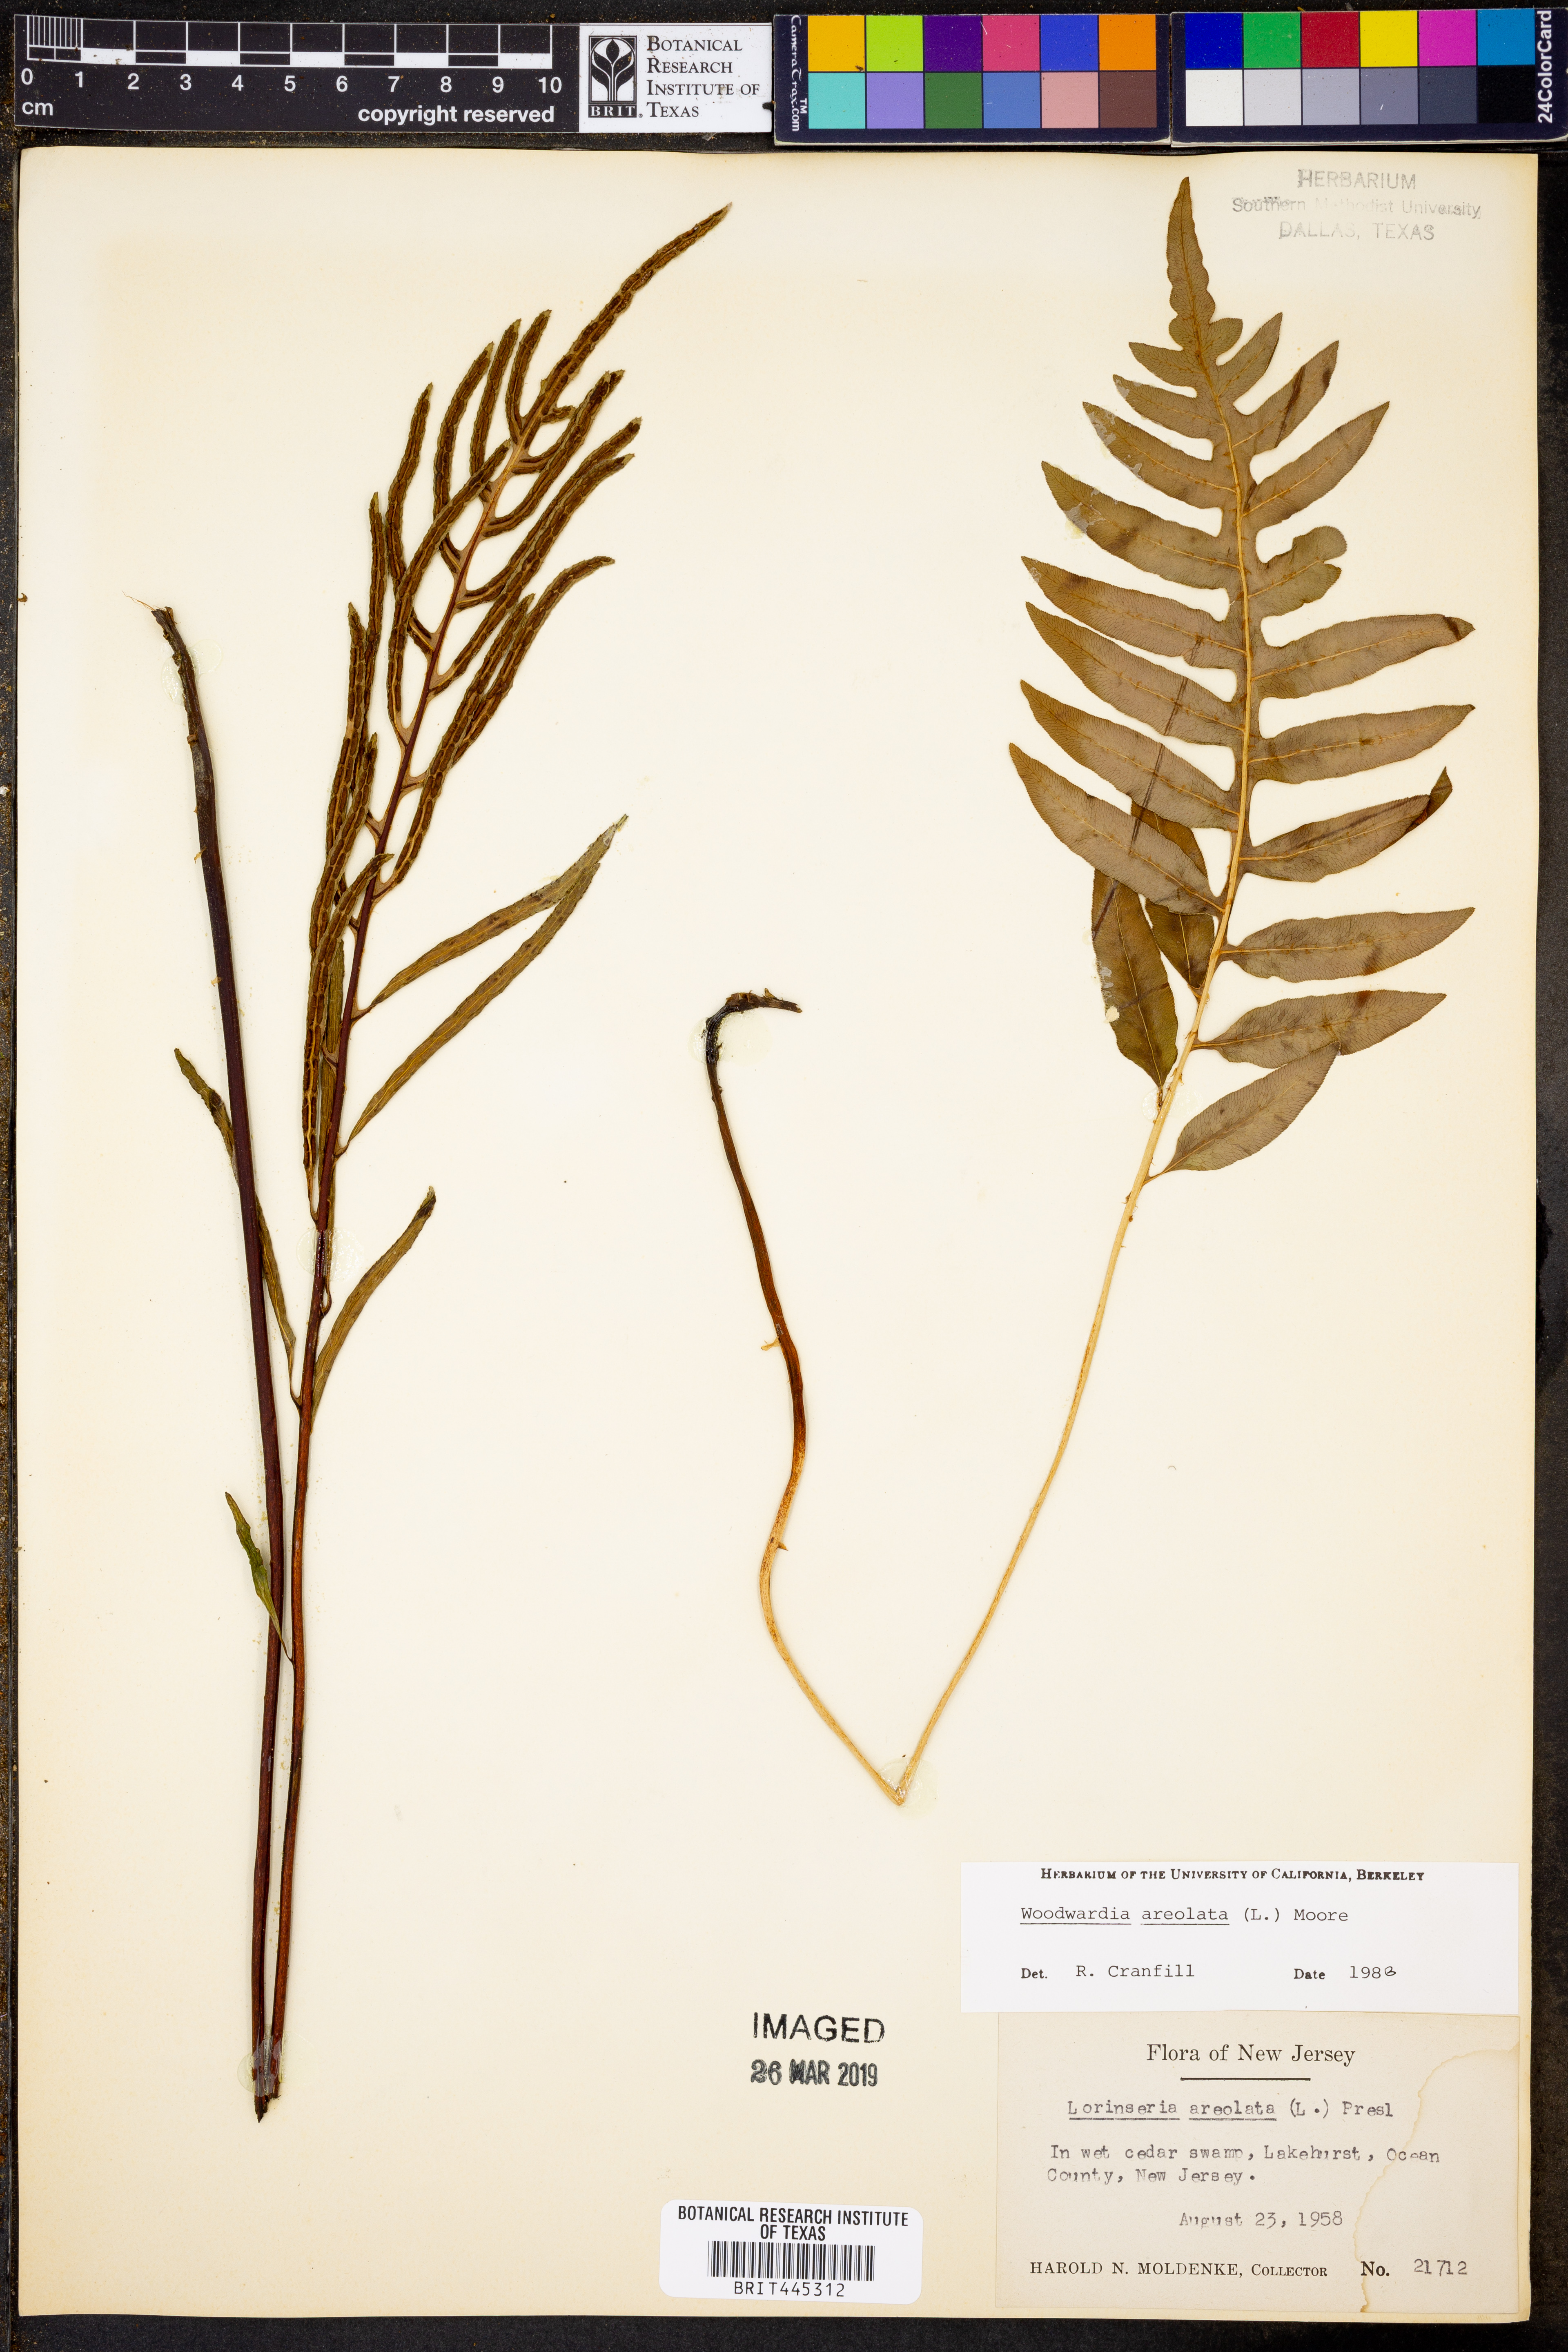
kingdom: Plantae
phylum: Tracheophyta
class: Polypodiopsida
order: Polypodiales
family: Blechnaceae
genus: Lorinseria
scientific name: Lorinseria areolata
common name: Dwarf chain fern
